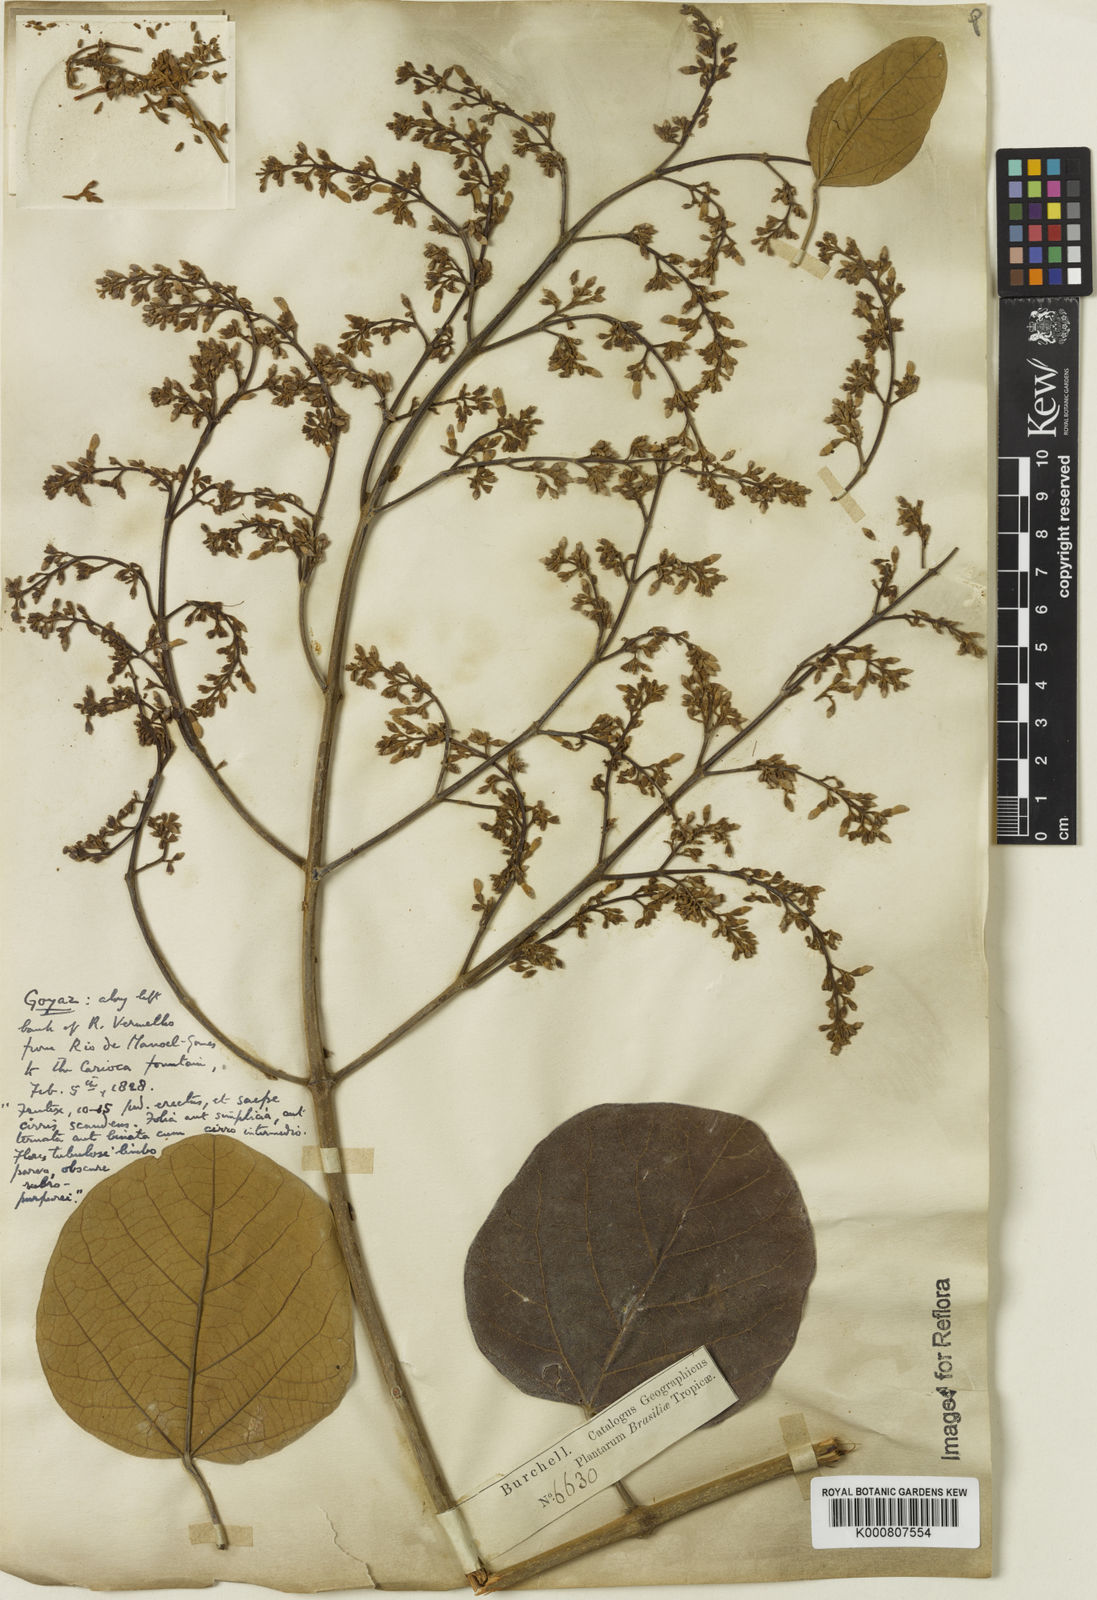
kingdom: Plantae
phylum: Tracheophyta
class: Magnoliopsida
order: Lamiales
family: Bignoniaceae
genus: Xylophragma
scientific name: Xylophragma platyphyllum
